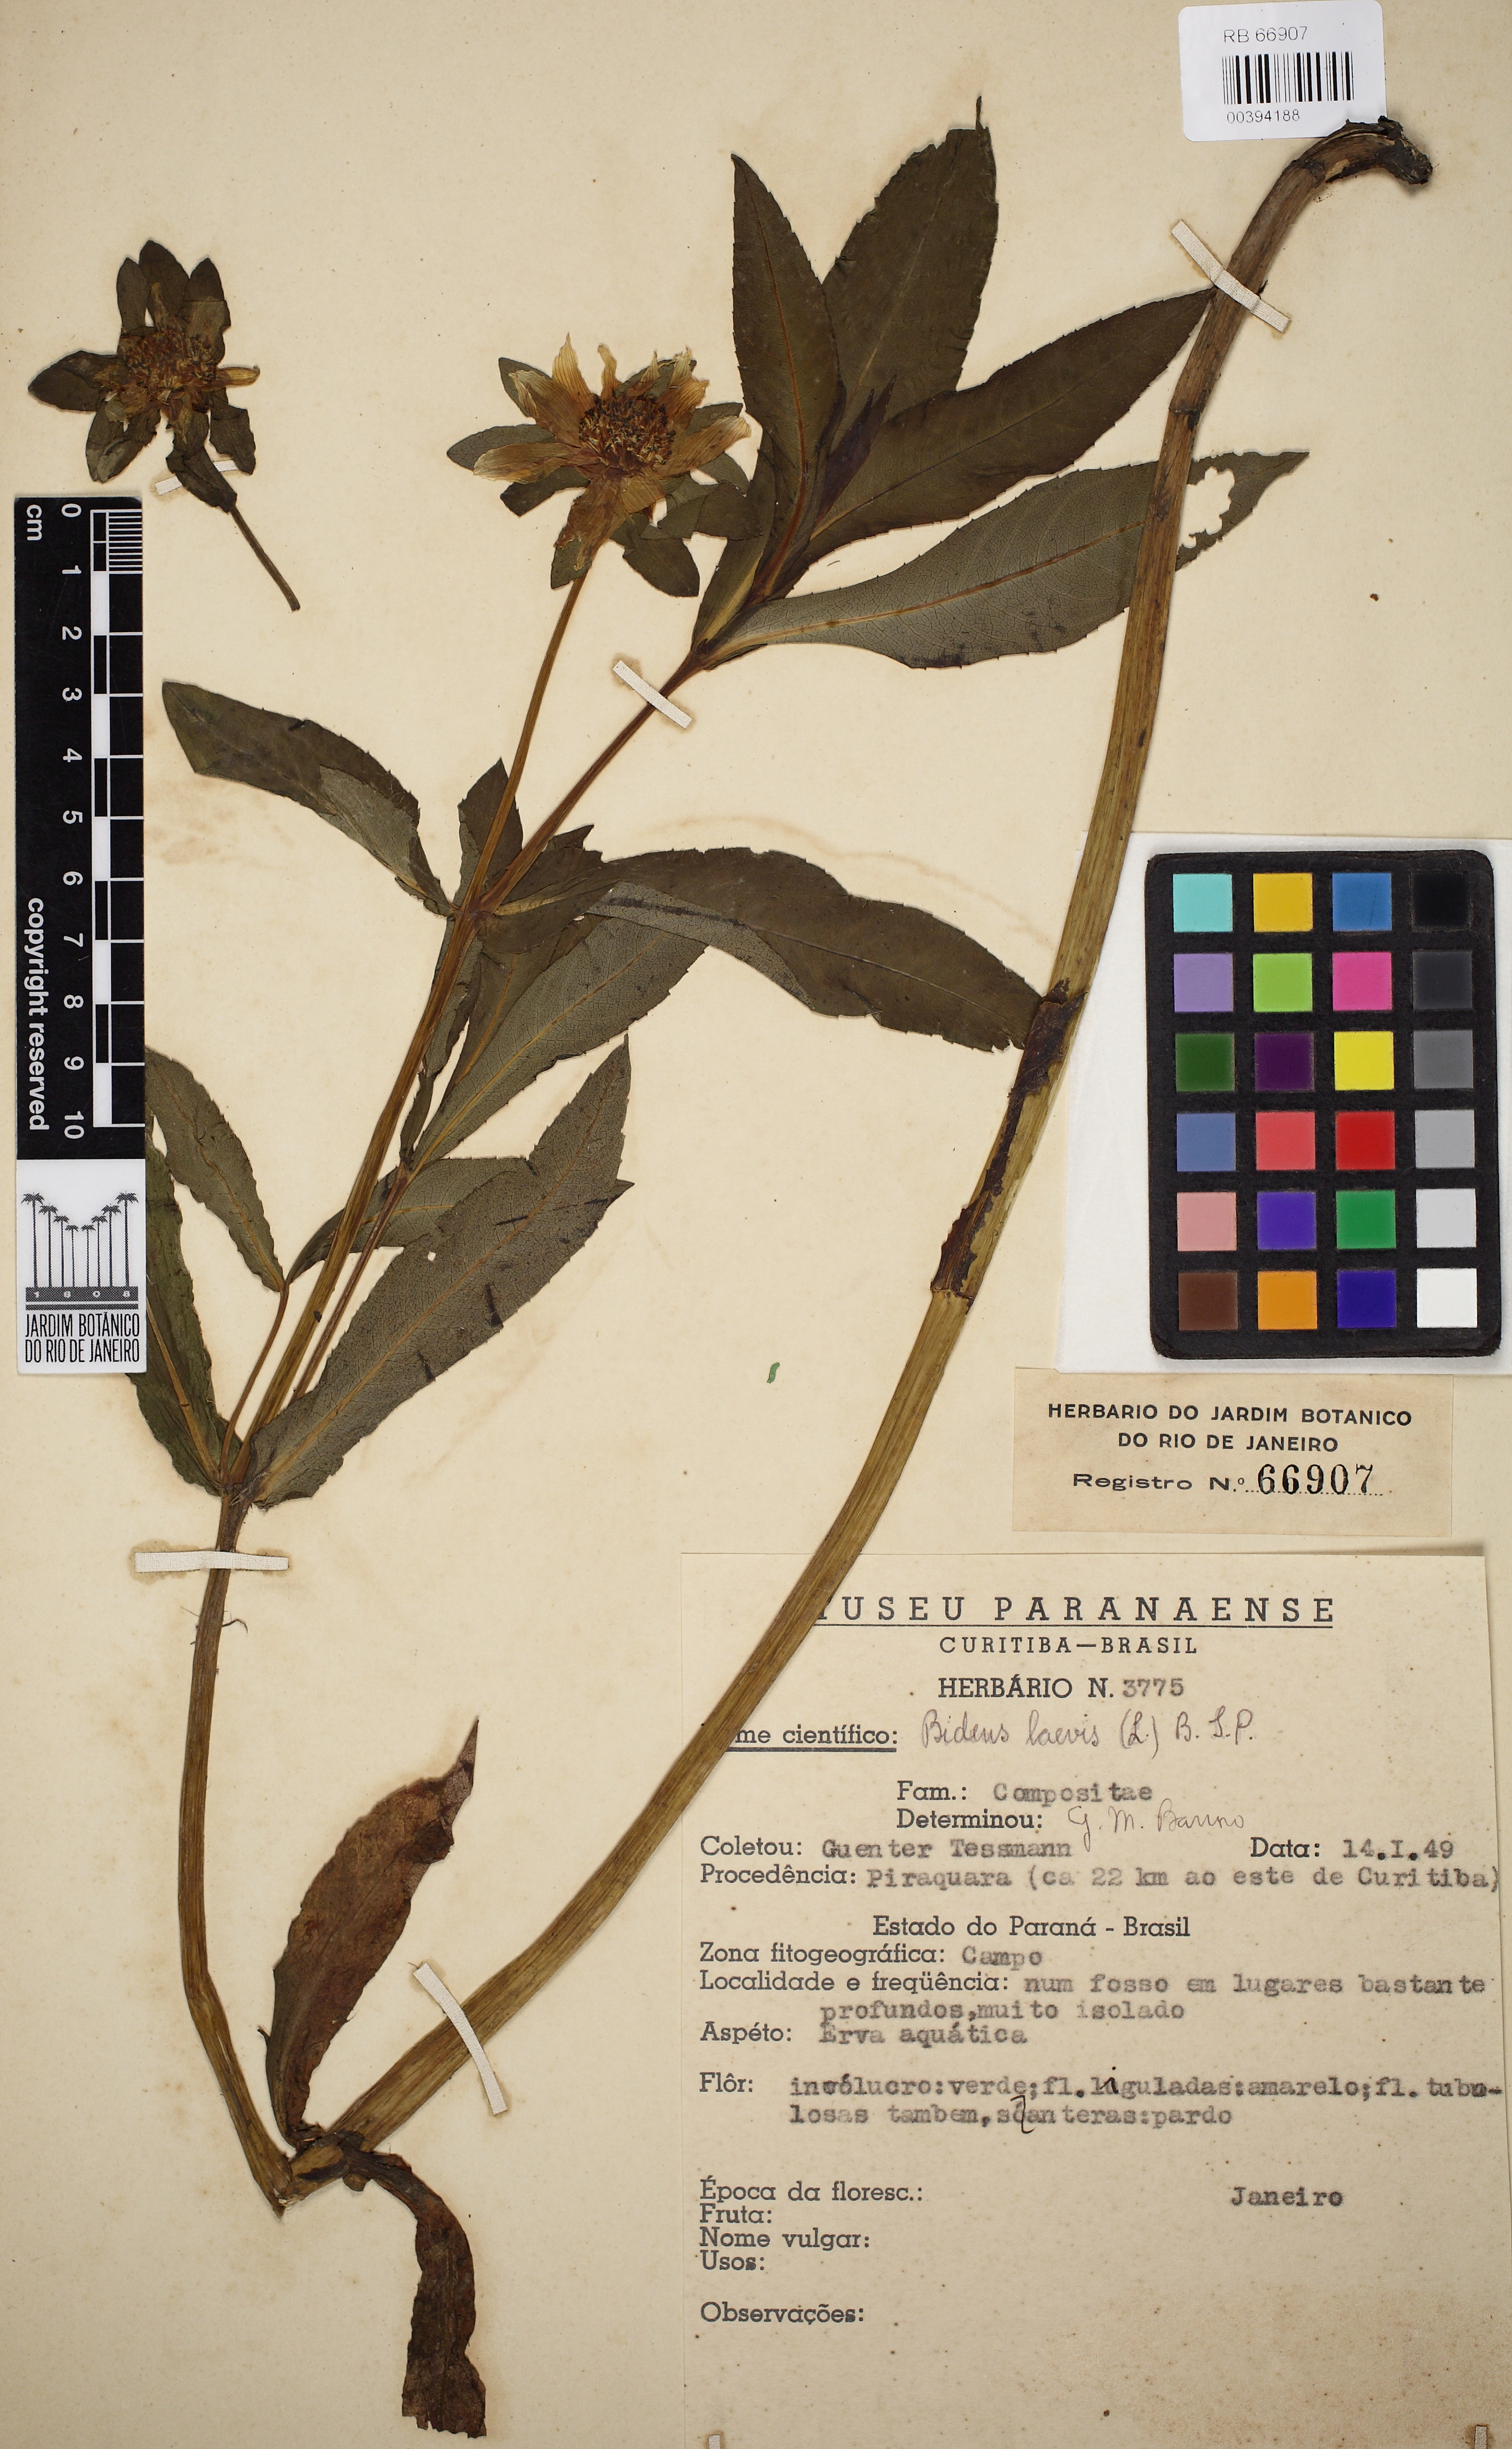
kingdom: Plantae
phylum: Tracheophyta
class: Magnoliopsida
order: Asterales
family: Asteraceae
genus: Bidens
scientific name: Bidens laevis
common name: Larger bur-marigold
